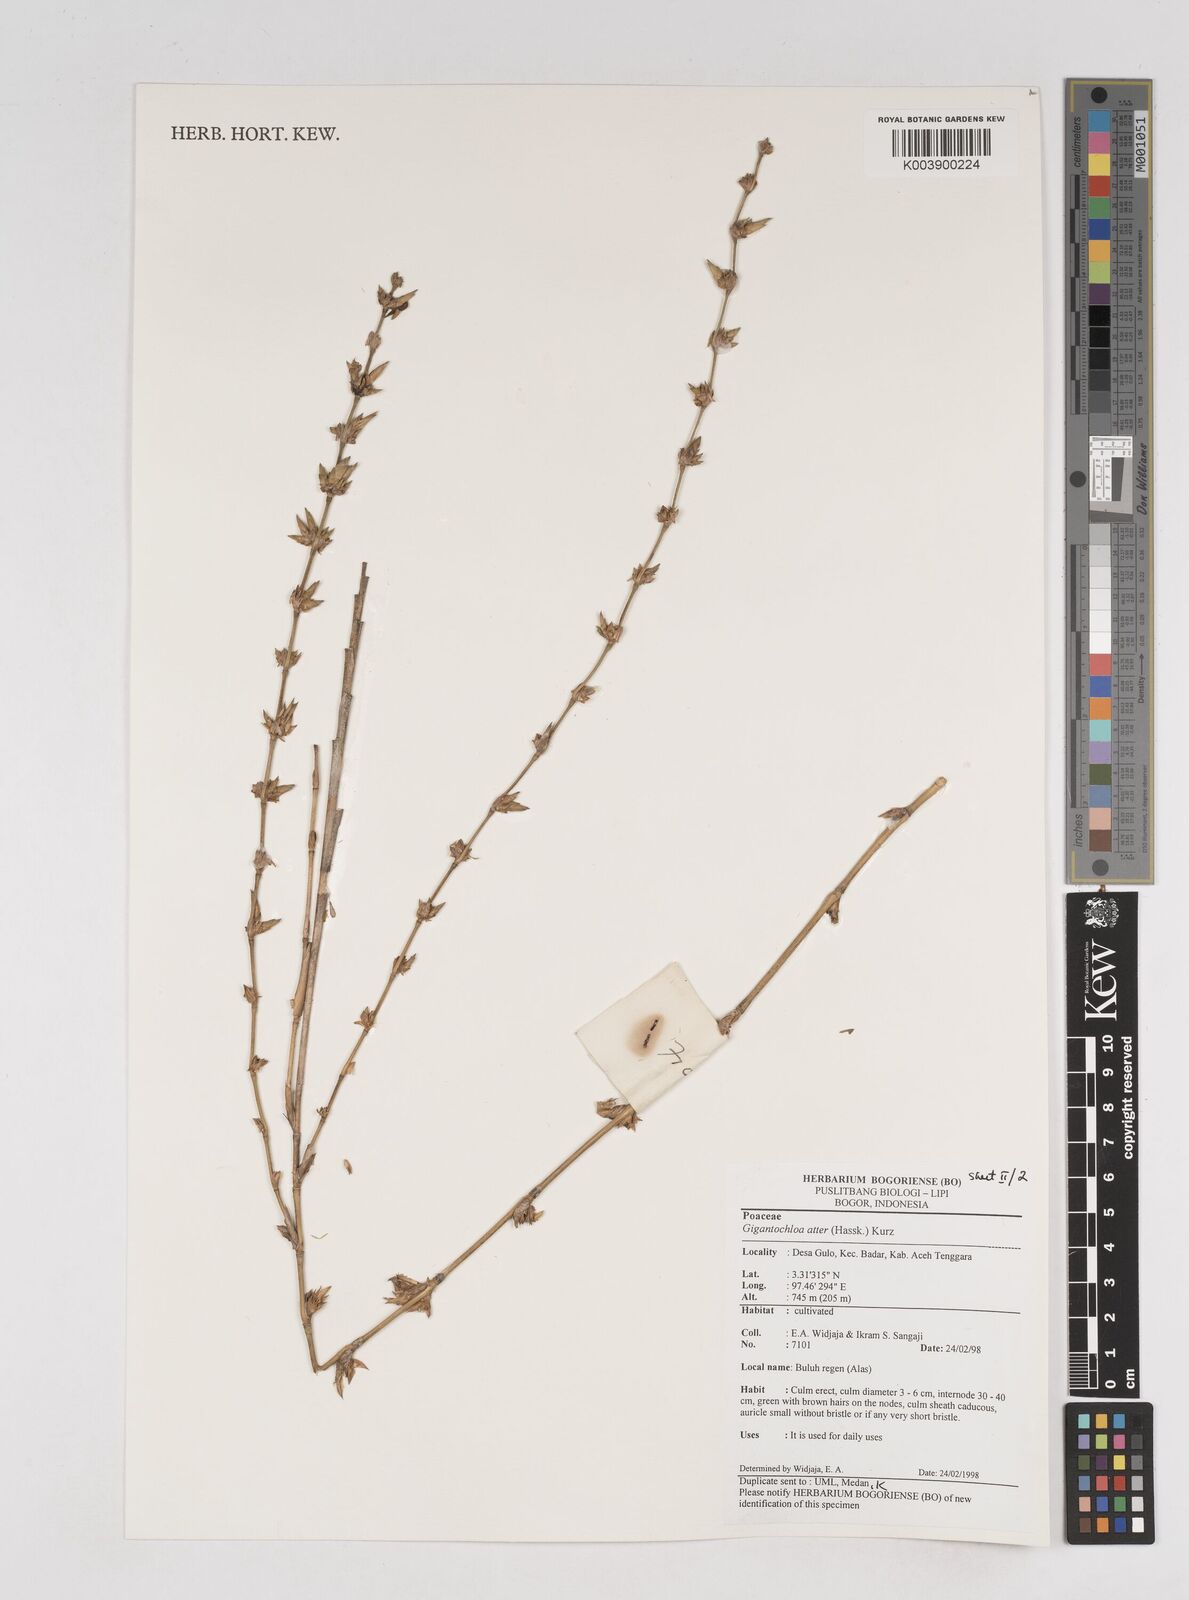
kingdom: Plantae
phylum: Tracheophyta
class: Liliopsida
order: Poales
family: Poaceae
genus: Gigantochloa
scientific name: Gigantochloa atter
